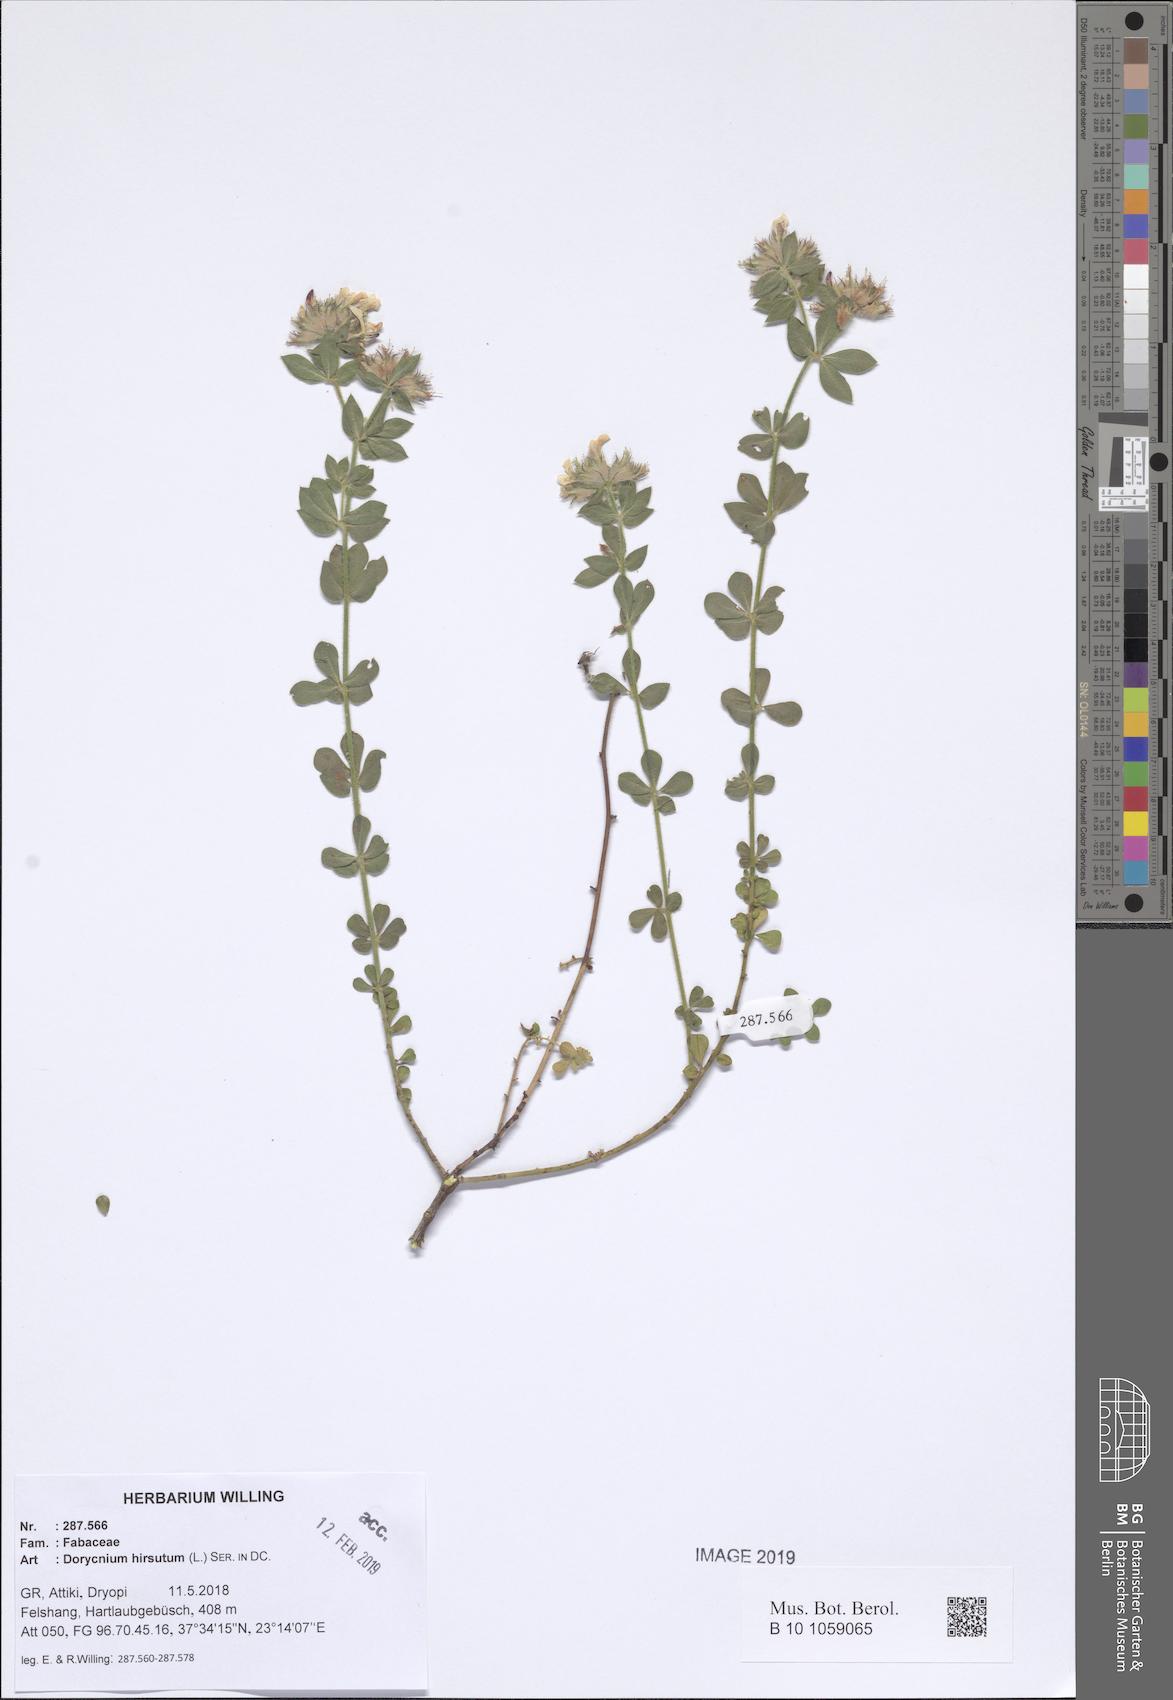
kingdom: Plantae
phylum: Tracheophyta
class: Magnoliopsida
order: Fabales
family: Fabaceae
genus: Lotus
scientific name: Lotus hirsutus
